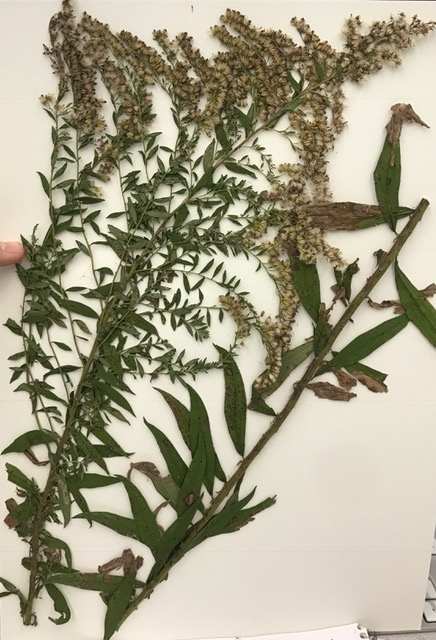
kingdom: Plantae
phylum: Tracheophyta
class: Magnoliopsida
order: Asterales
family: Asteraceae
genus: Solidago
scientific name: Solidago altissima
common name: Goldenrod
